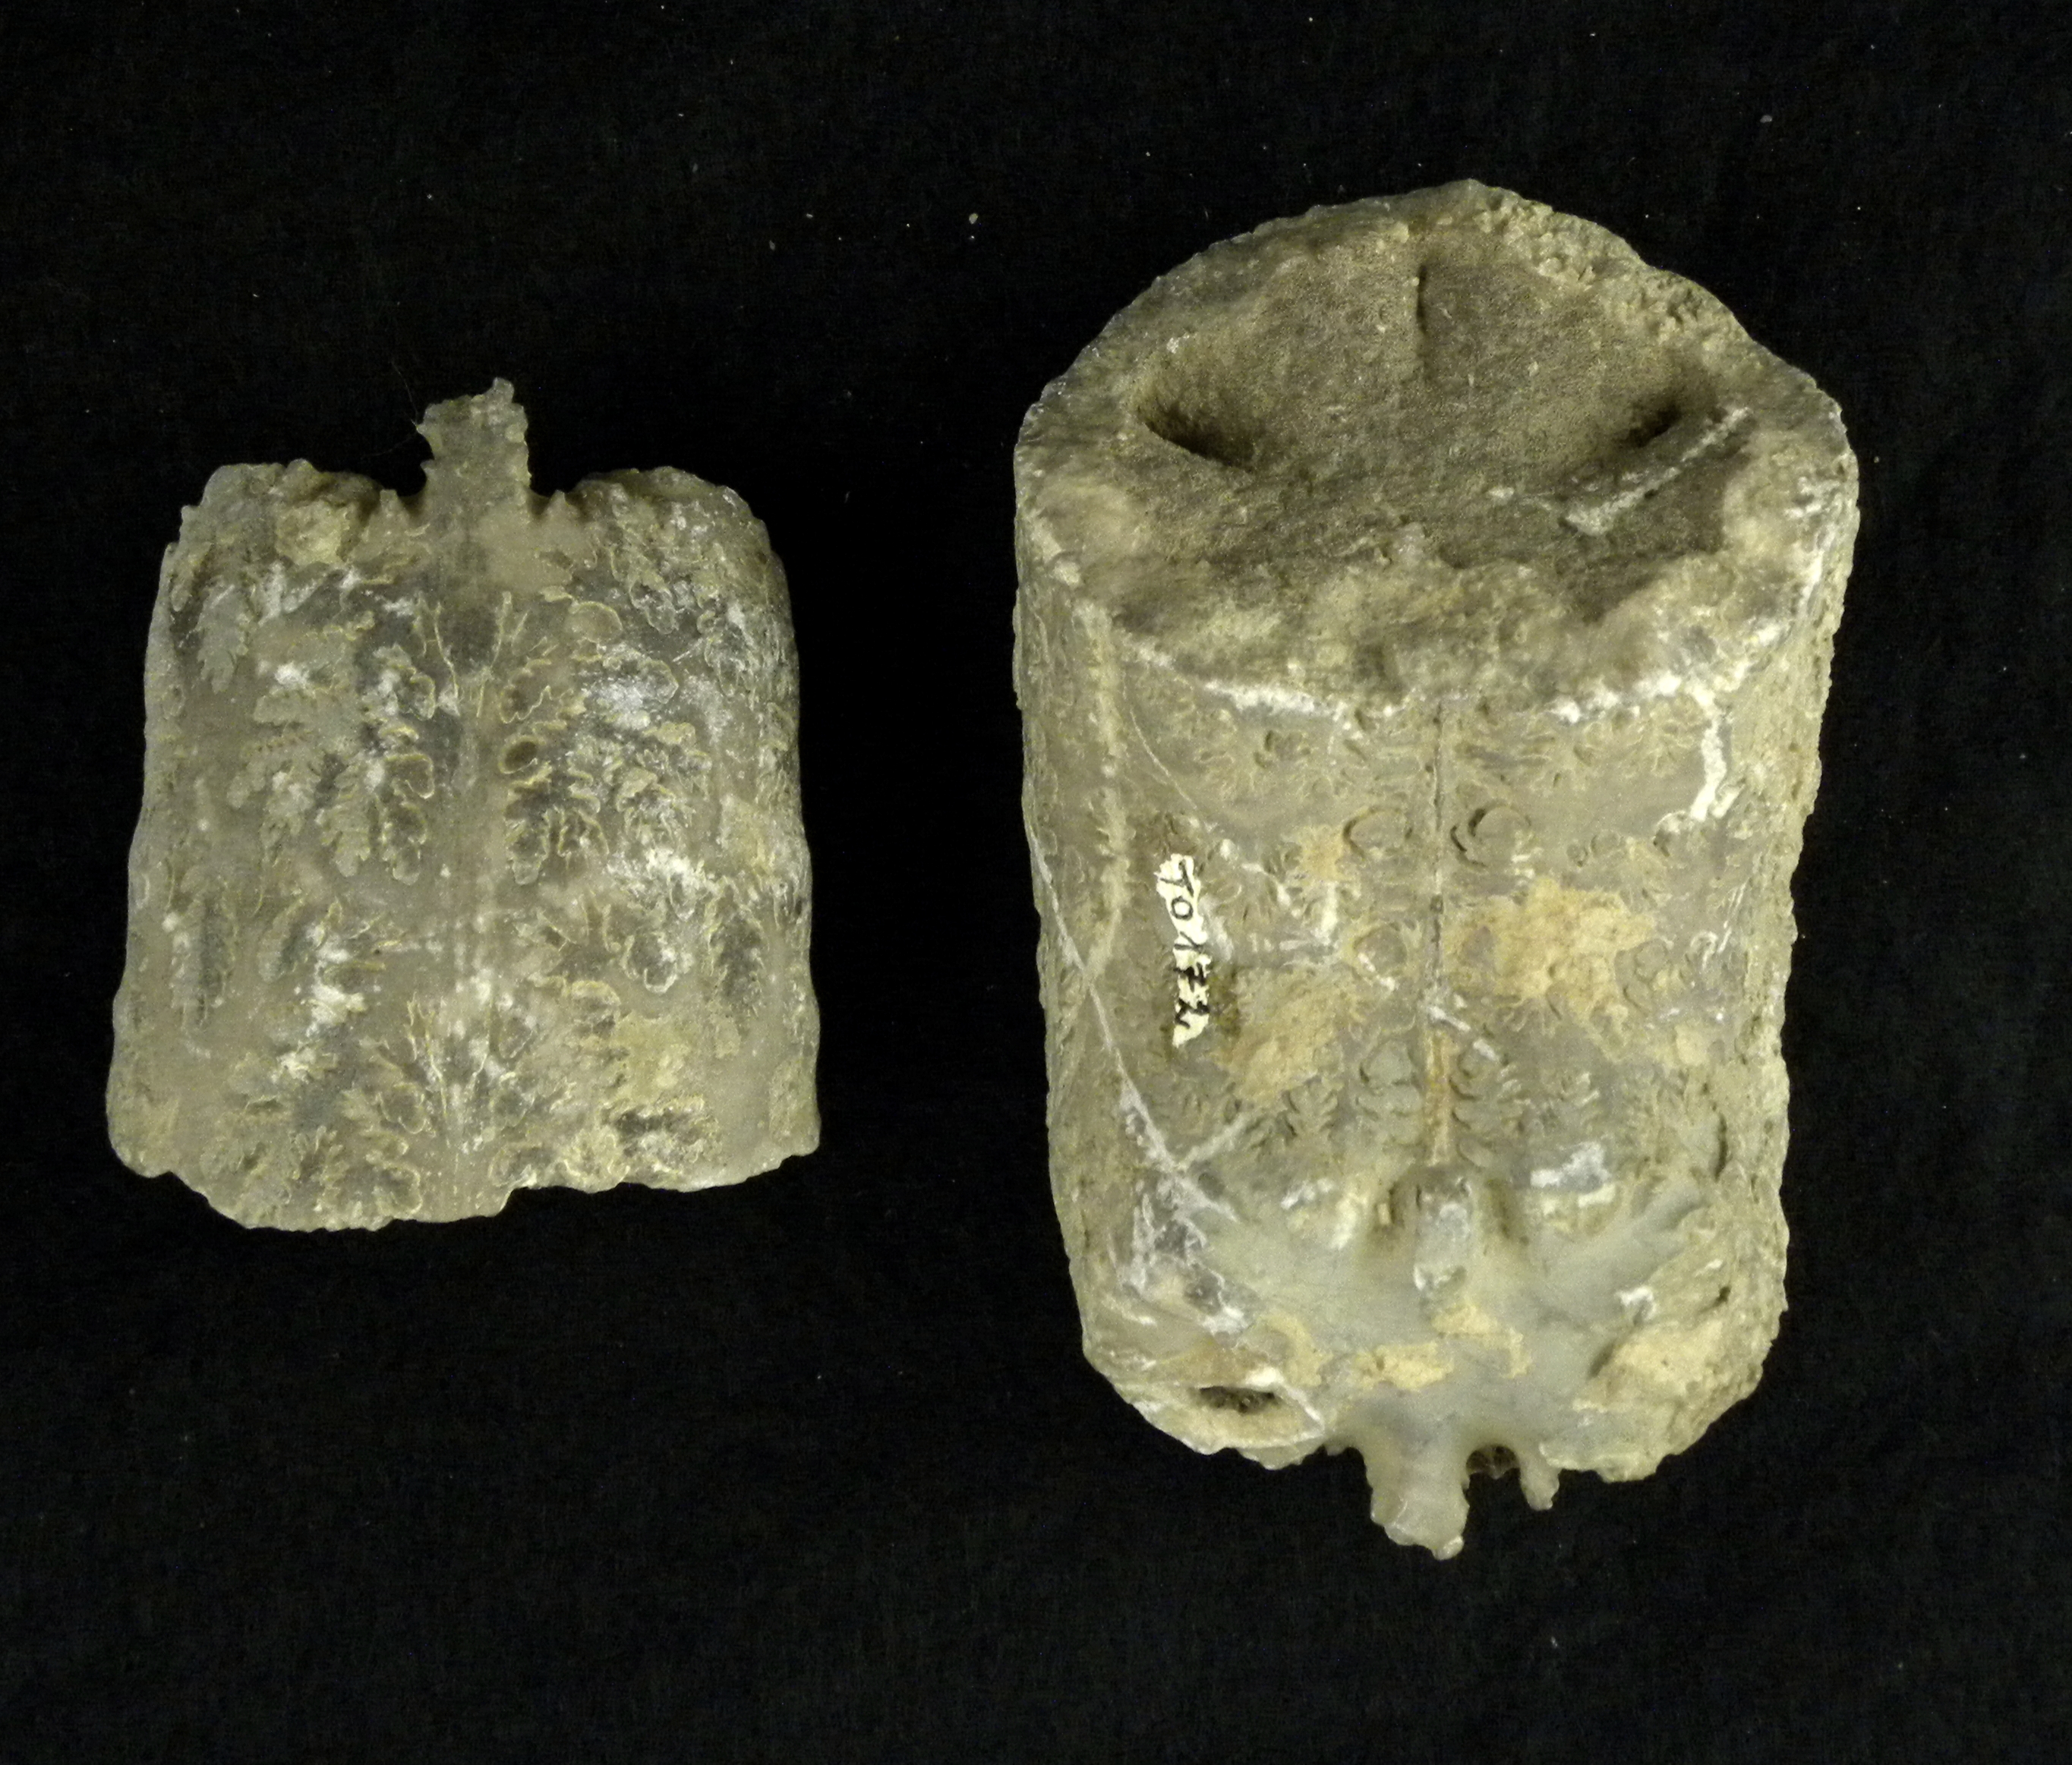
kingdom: Animalia
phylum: Mollusca
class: Cephalopoda
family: Lytoceratidae
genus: Lytoceras
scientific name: Lytoceras cornucopia
